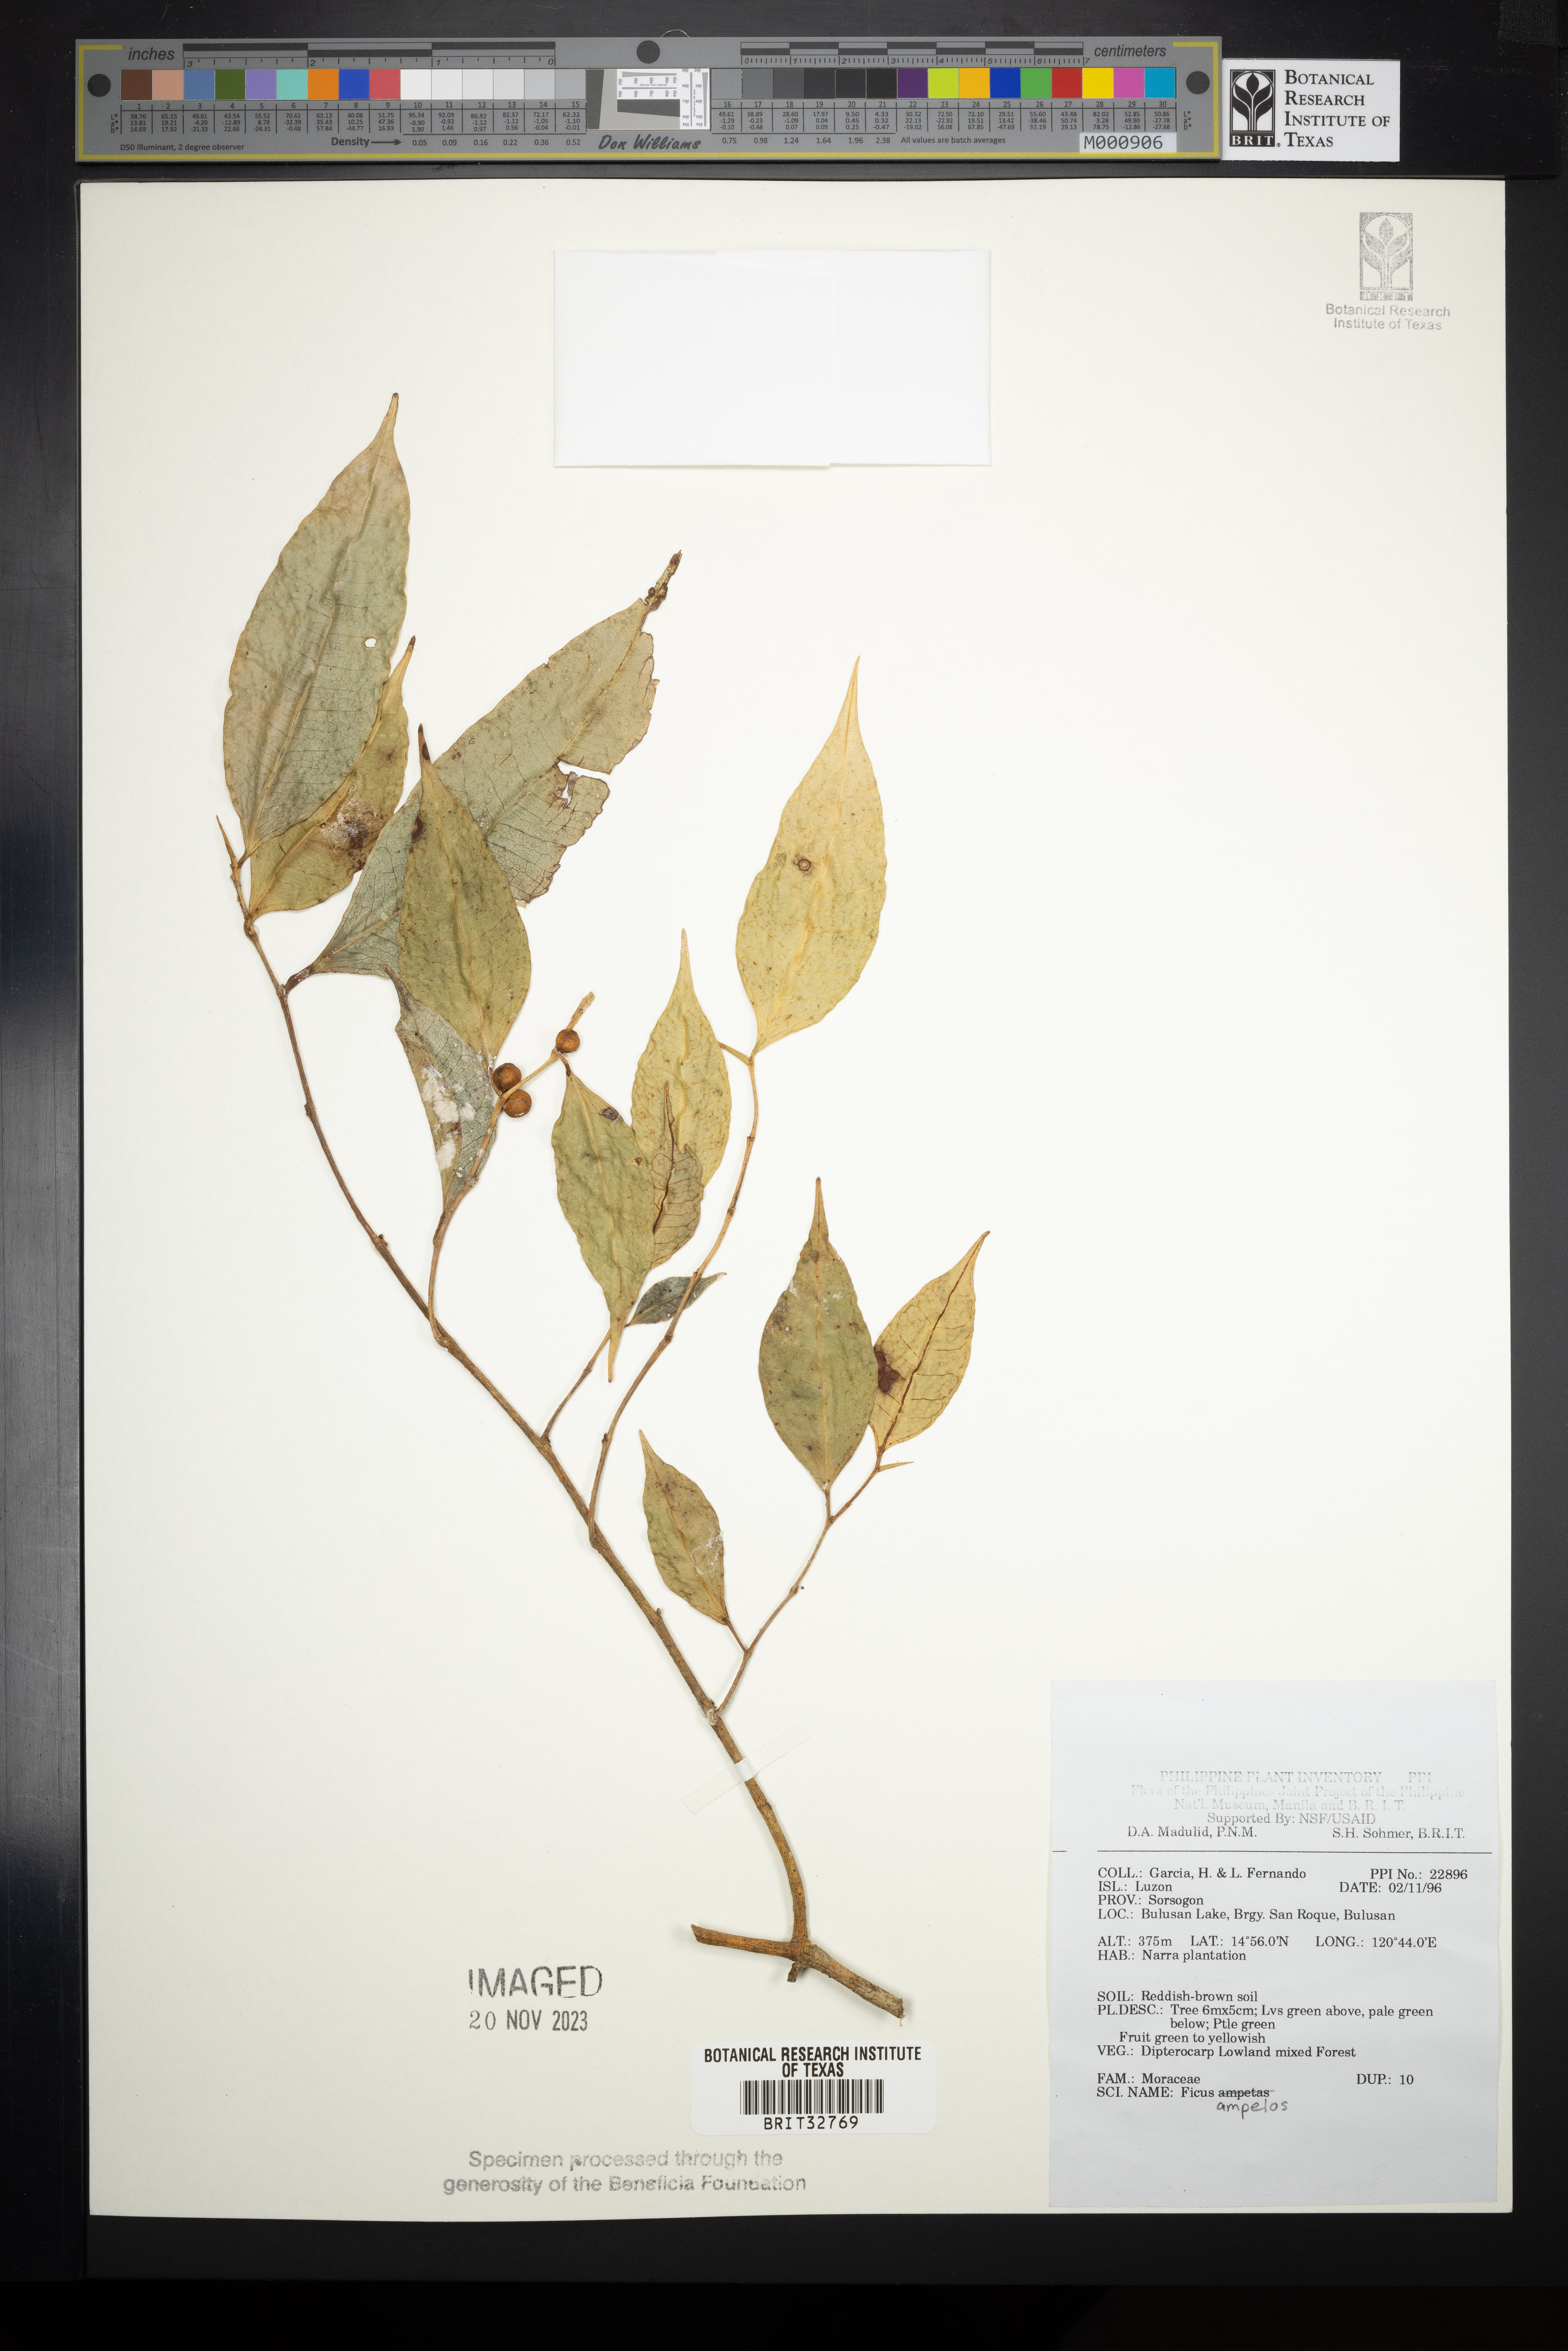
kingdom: Plantae
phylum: Tracheophyta
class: Magnoliopsida
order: Rosales
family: Moraceae
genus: Ficus
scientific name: Ficus ampelos
